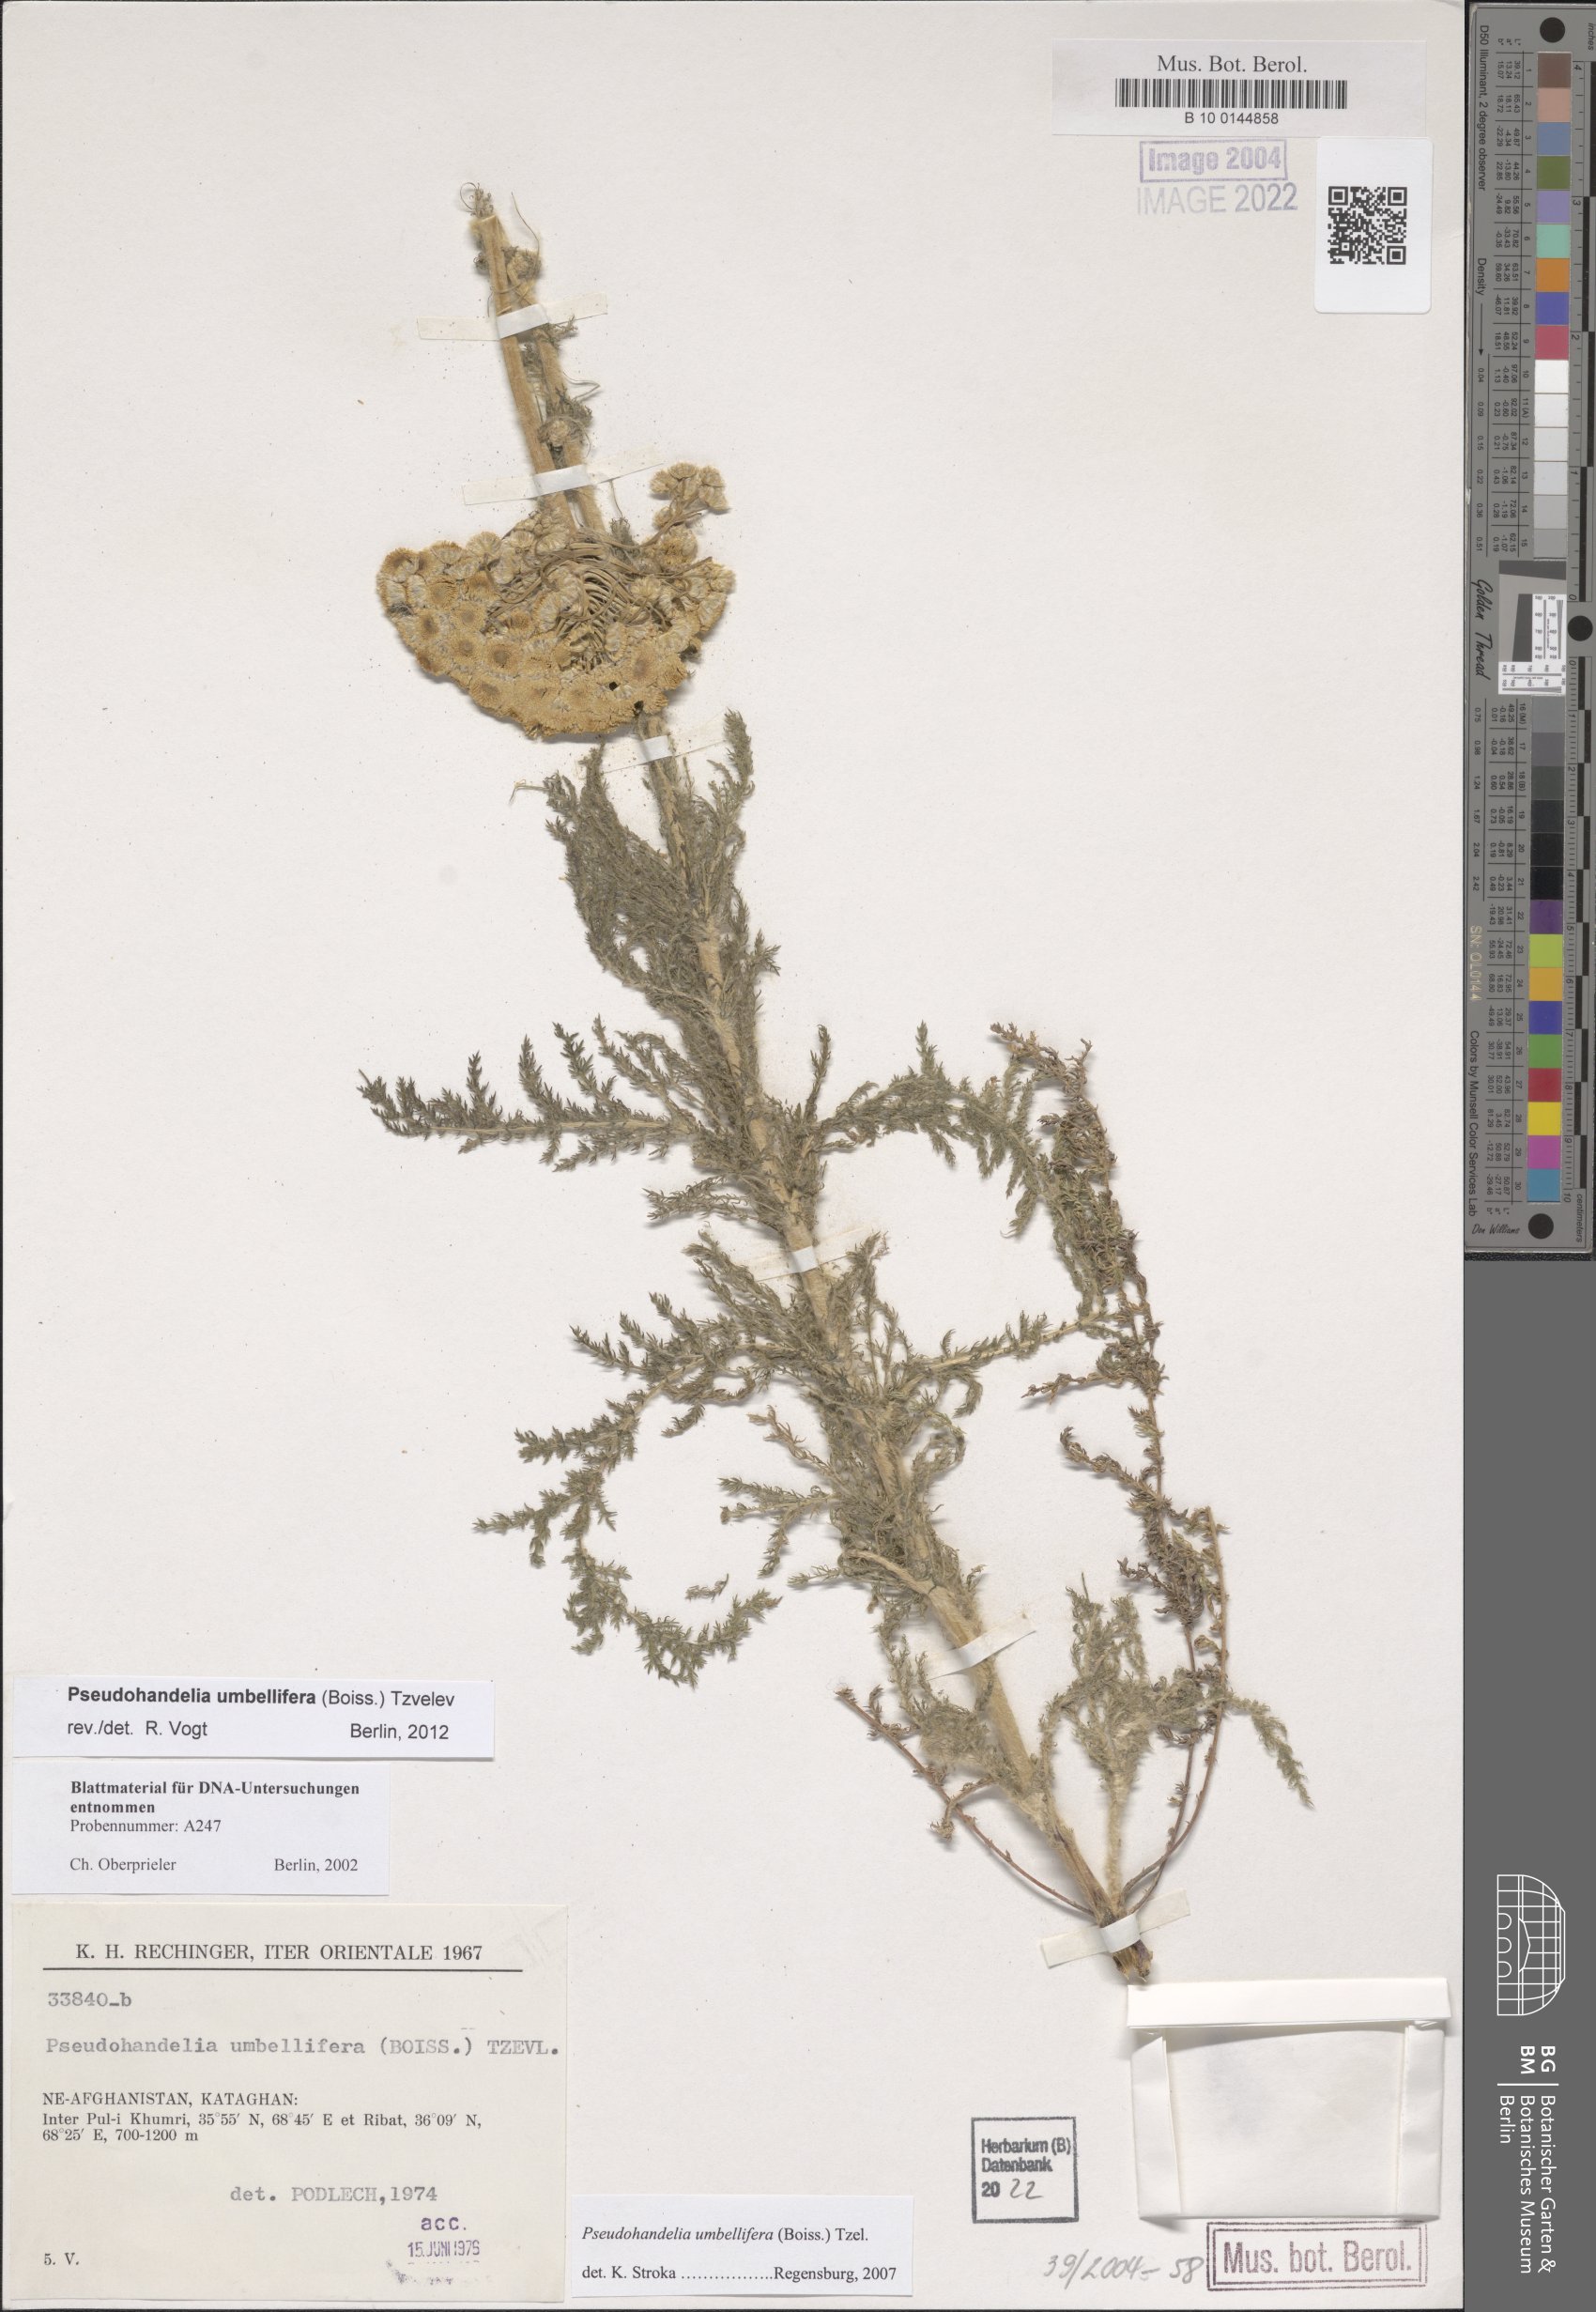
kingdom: Plantae
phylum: Tracheophyta
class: Magnoliopsida
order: Asterales
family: Asteraceae
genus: Pseudohandelia
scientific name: Pseudohandelia umbellifera
